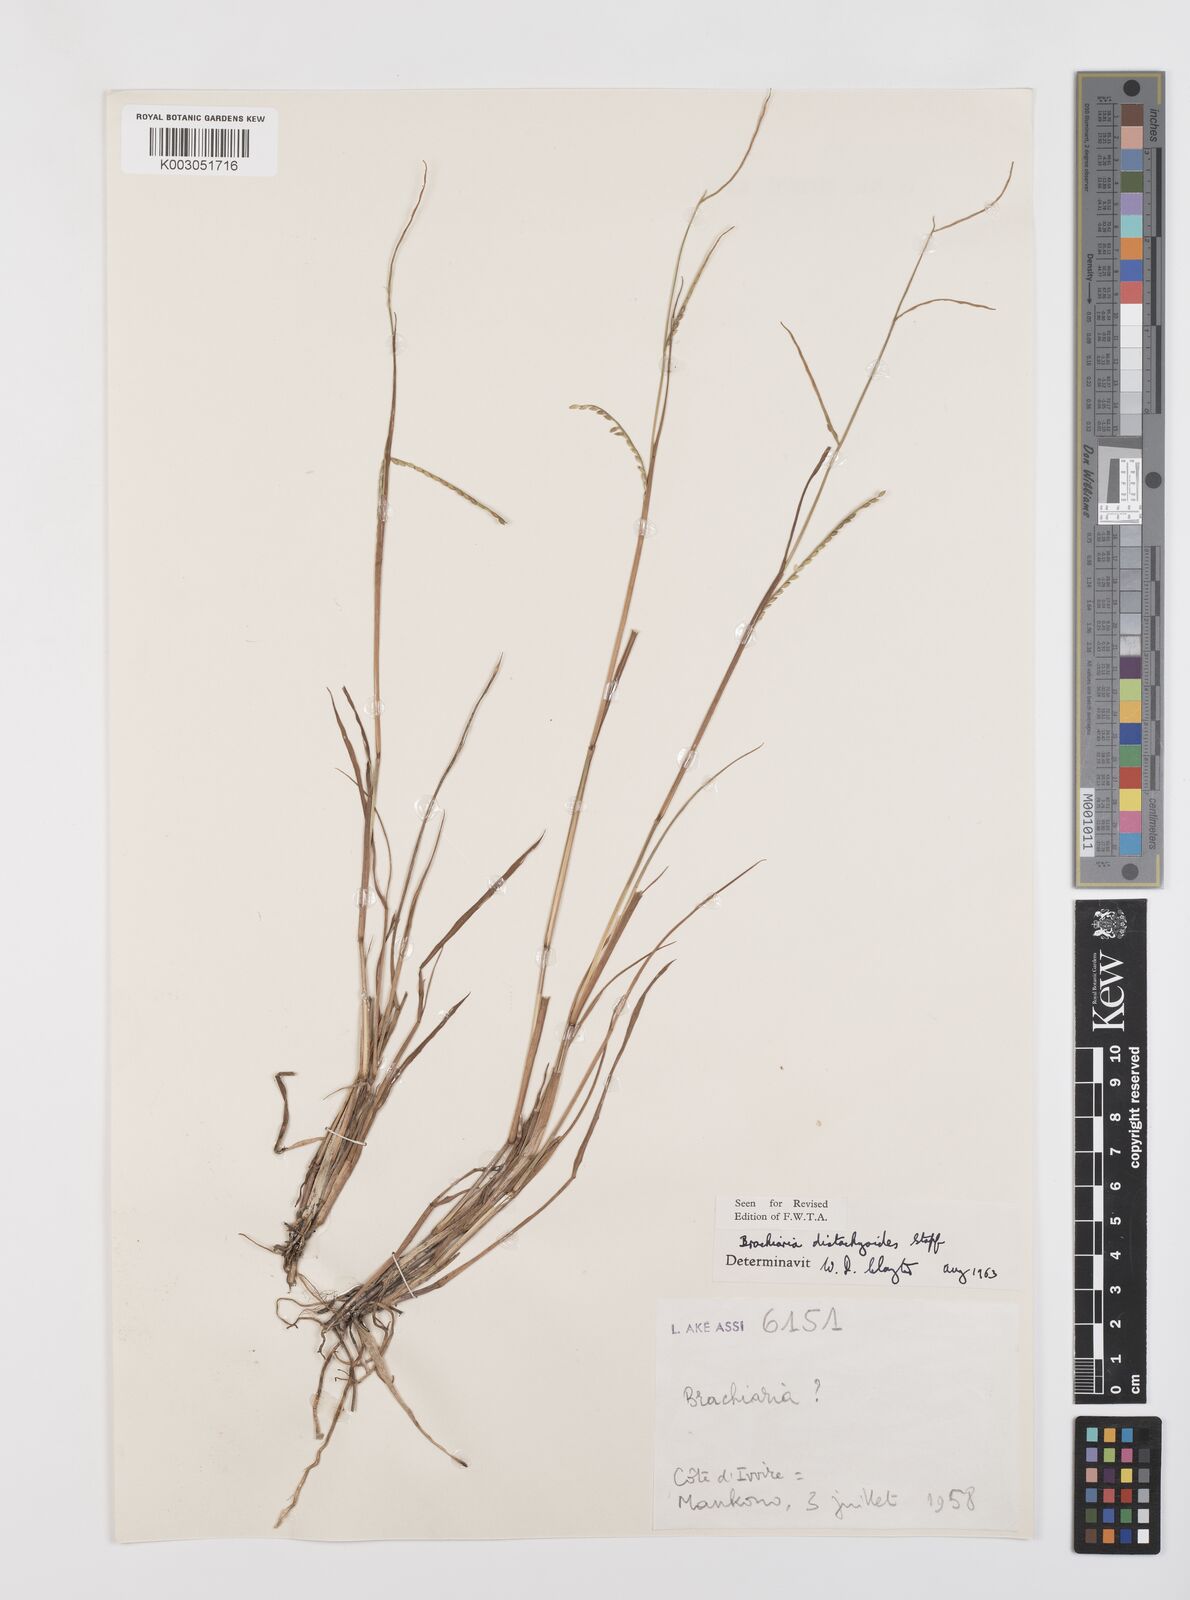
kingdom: Plantae
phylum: Tracheophyta
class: Liliopsida
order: Poales
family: Poaceae
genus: Urochloa
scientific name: Urochloa distachyoides
